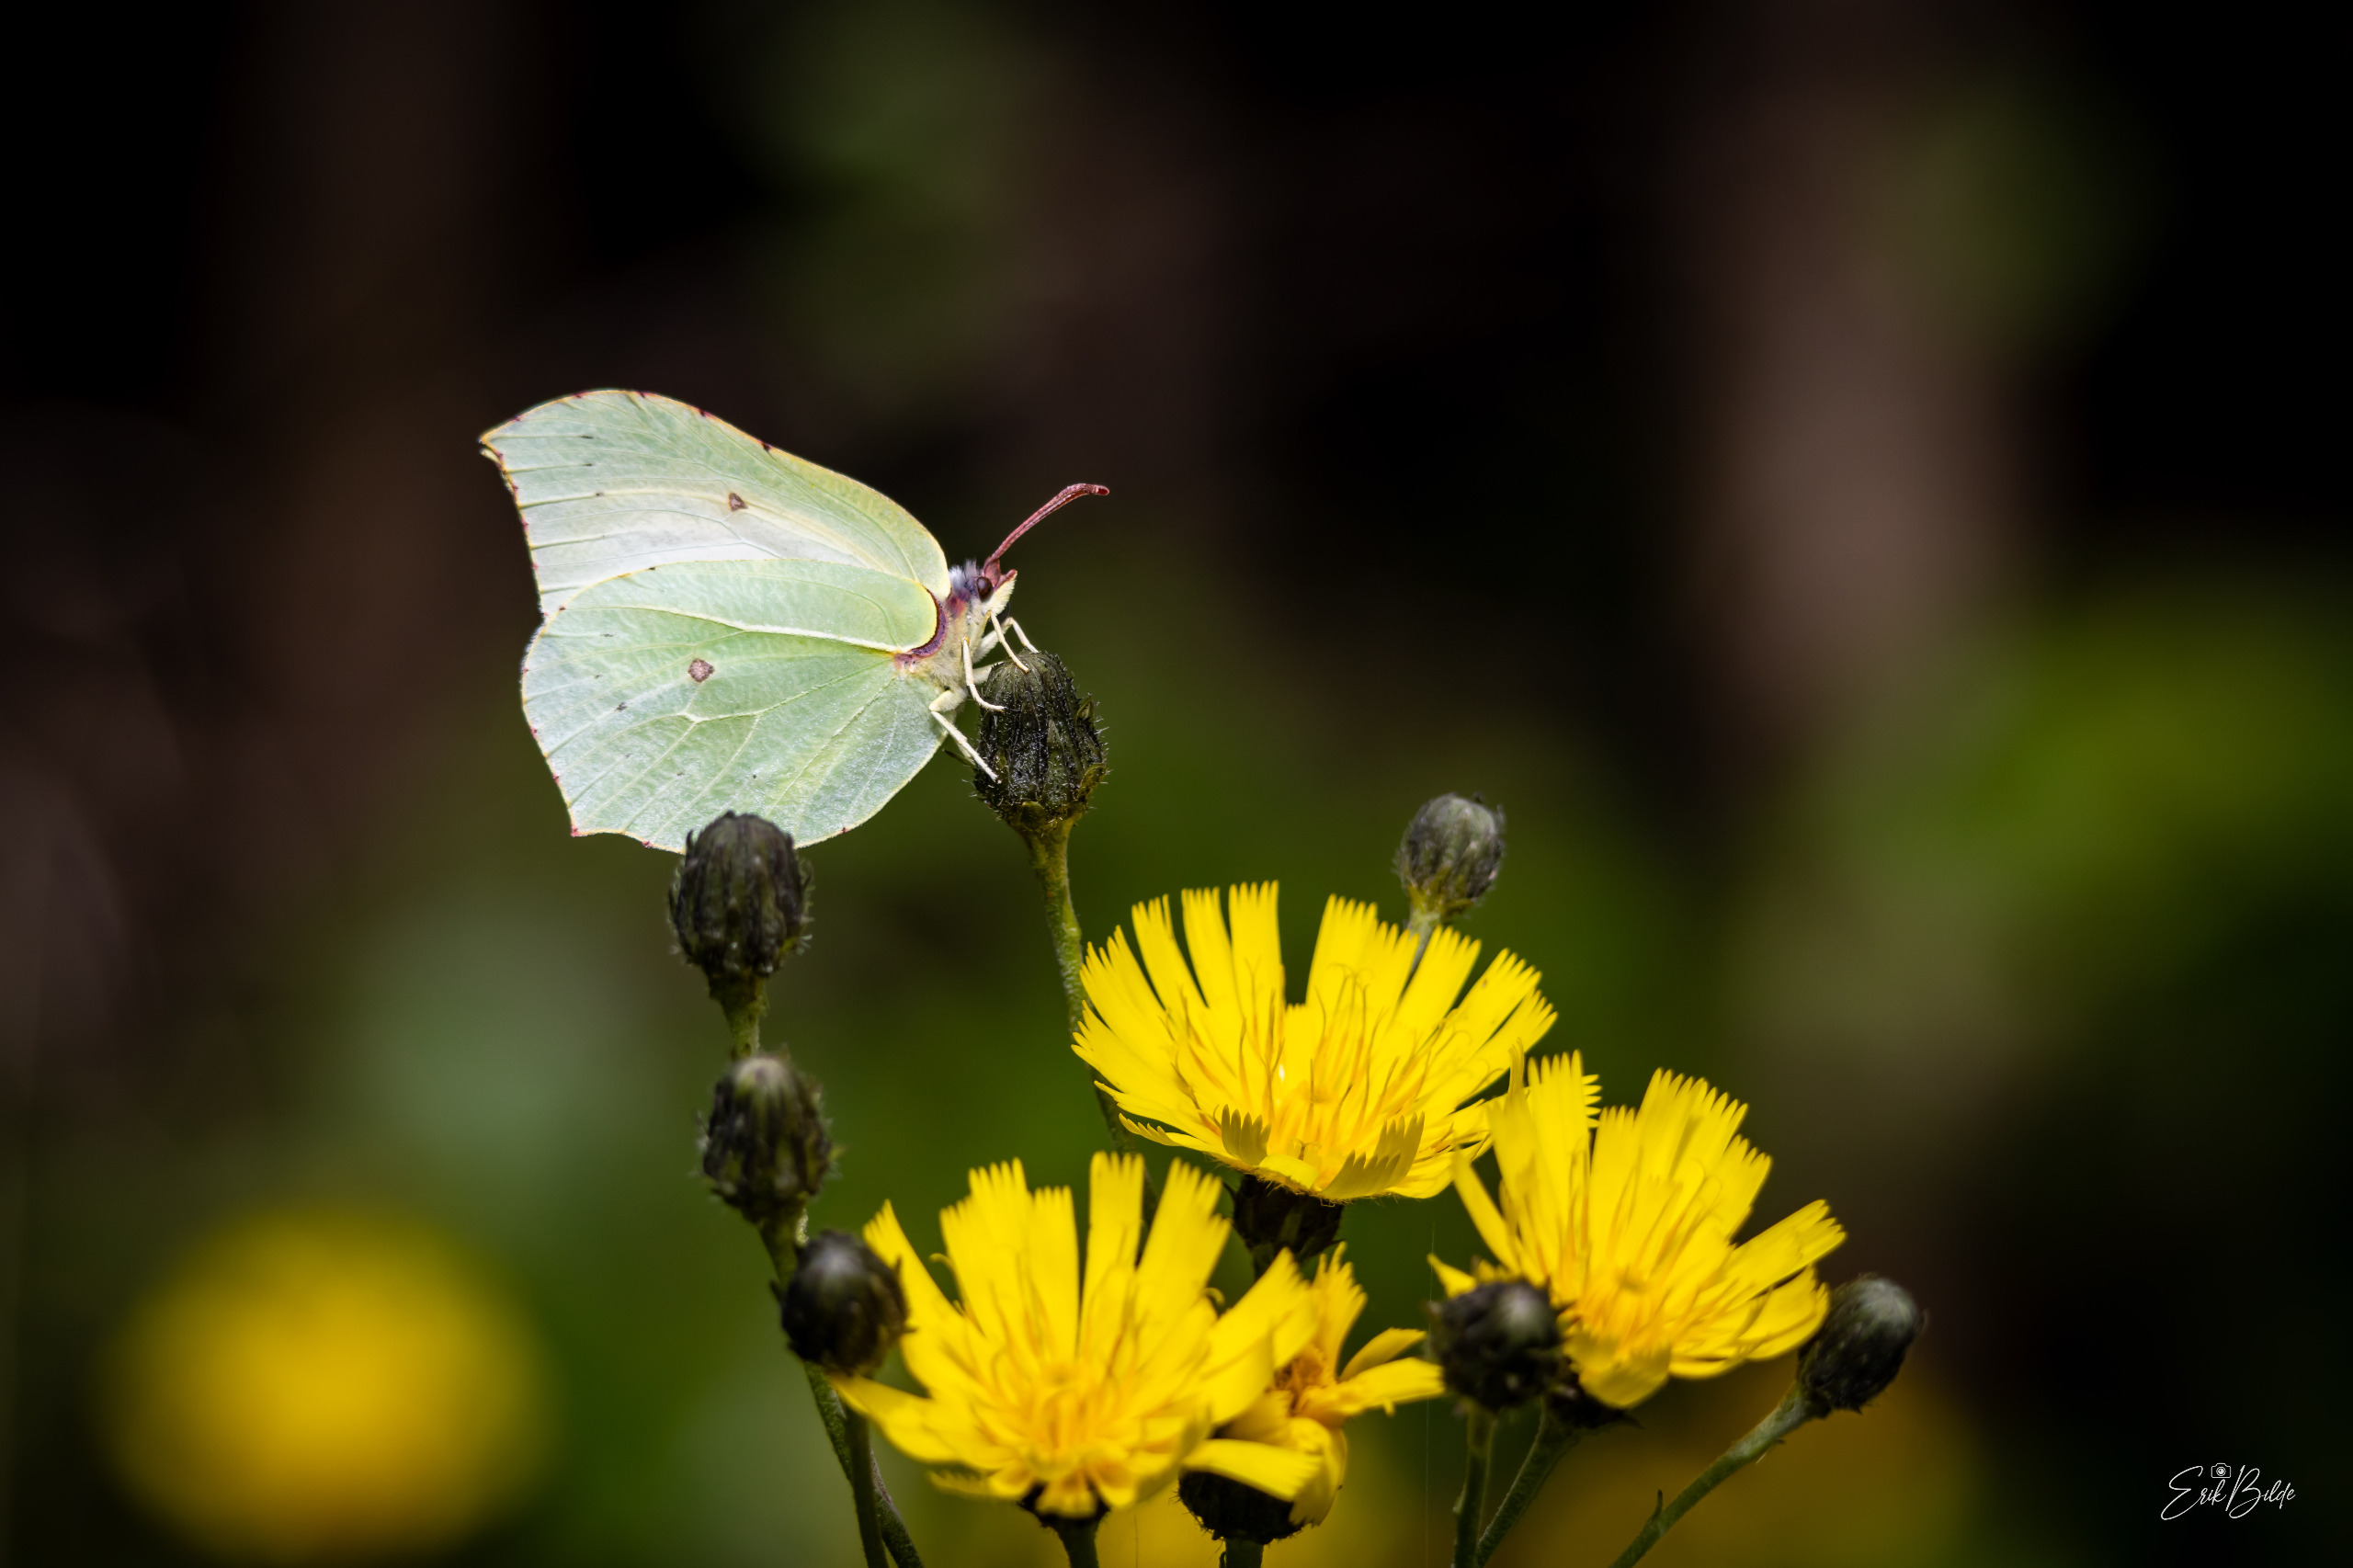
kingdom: Animalia
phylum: Arthropoda
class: Insecta
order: Lepidoptera
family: Pieridae
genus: Gonepteryx
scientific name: Gonepteryx rhamni
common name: Citronsommerfugl
